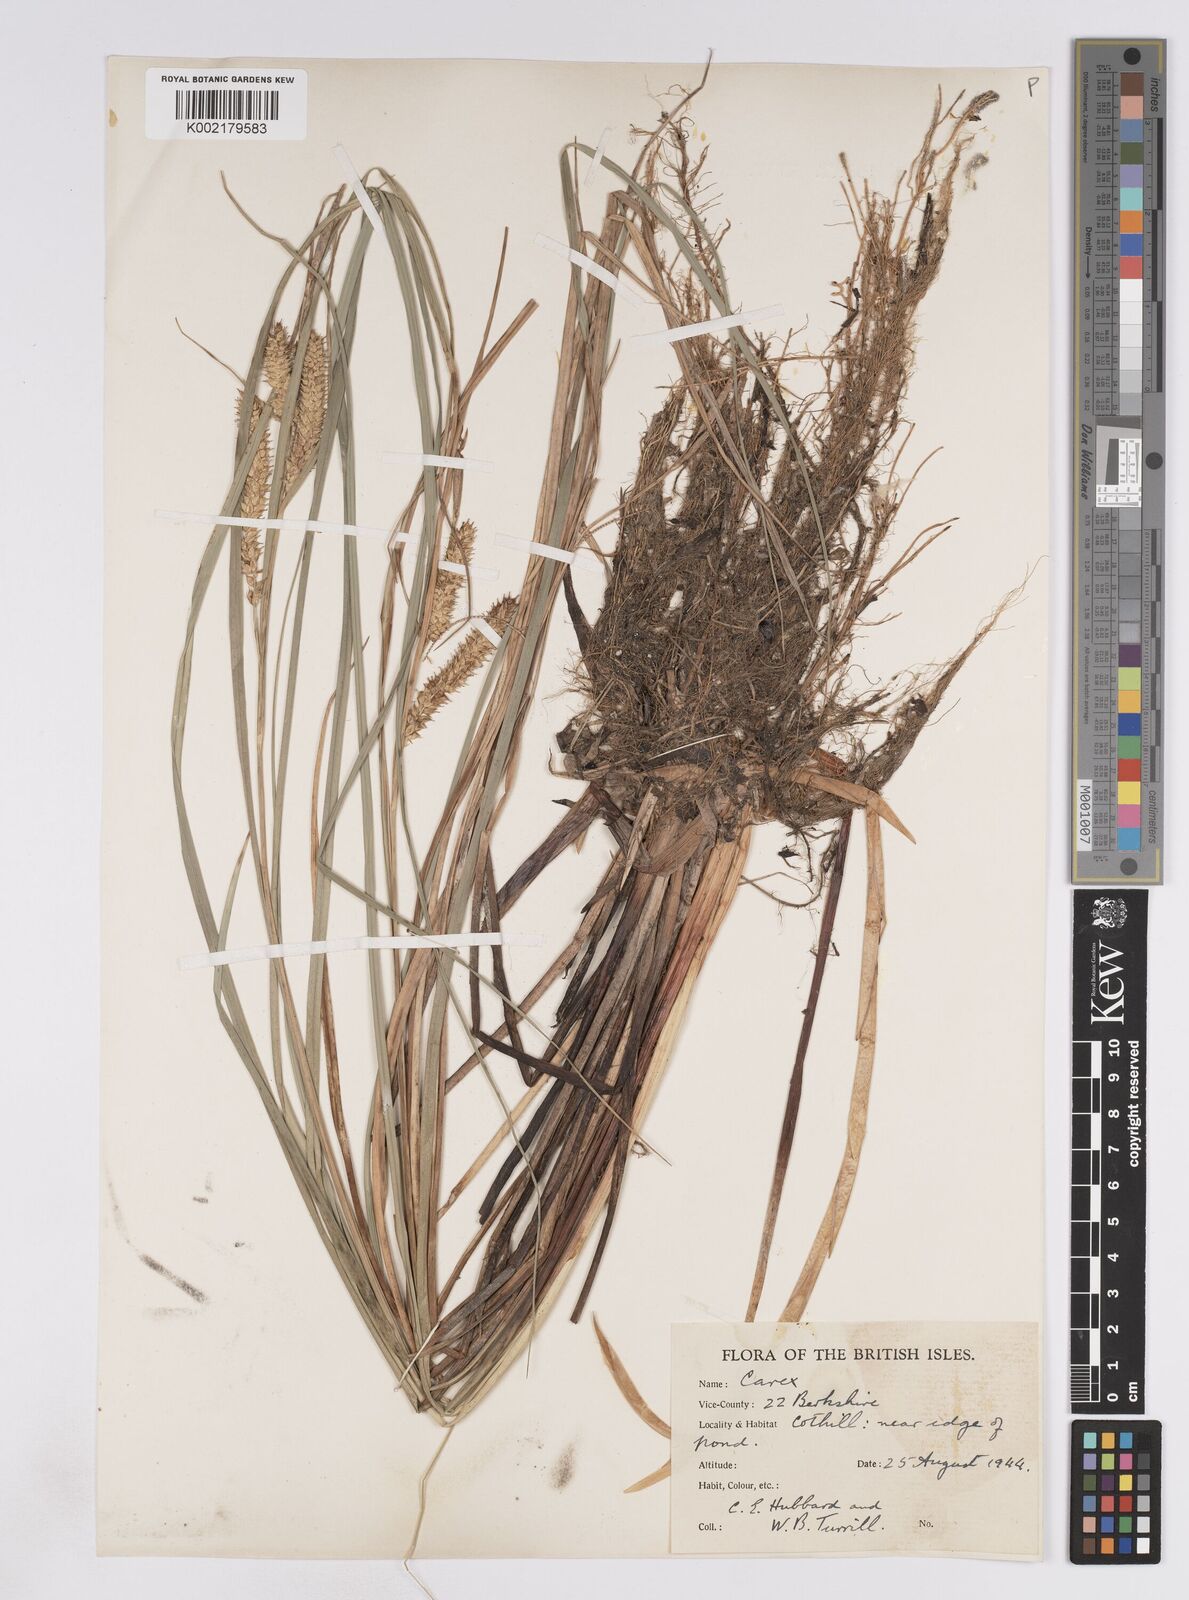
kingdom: Plantae
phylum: Tracheophyta
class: Liliopsida
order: Poales
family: Cyperaceae
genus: Carex
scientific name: Carex rostrata
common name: Bottle sedge
